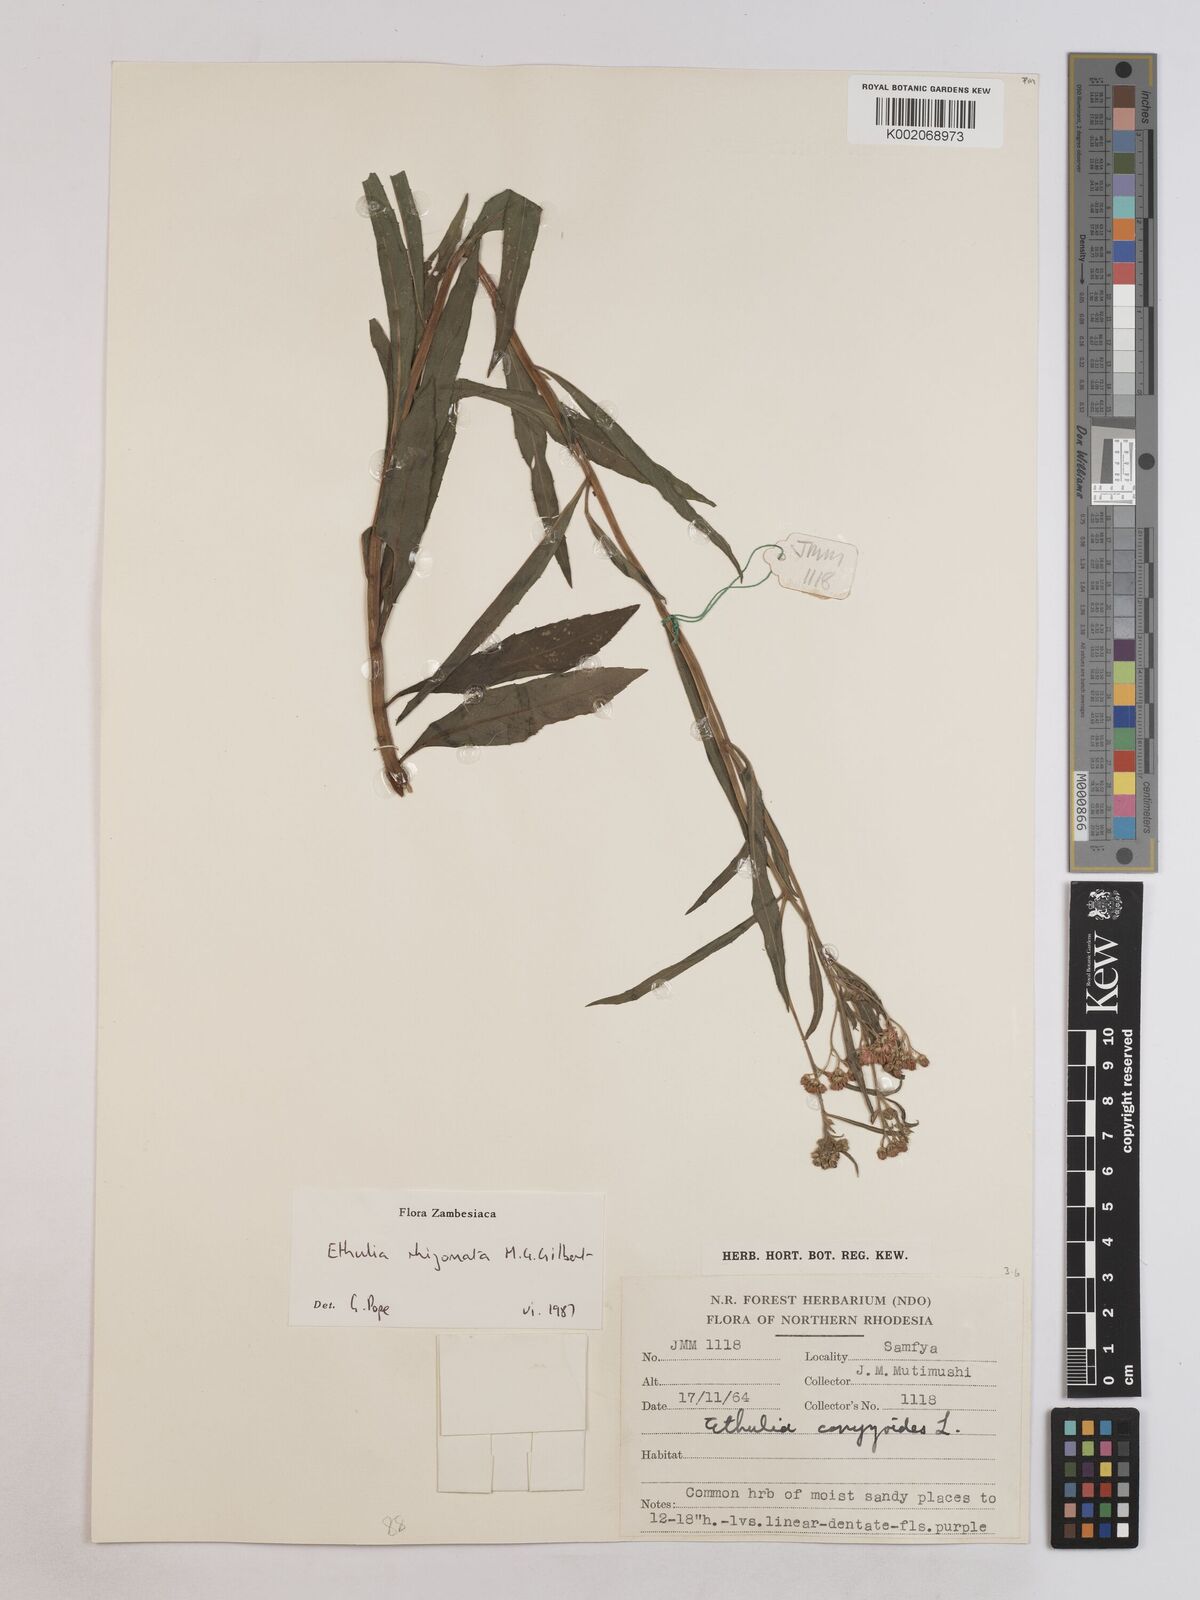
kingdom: Plantae
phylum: Tracheophyta
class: Magnoliopsida
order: Asterales
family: Asteraceae
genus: Ethulia
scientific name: Ethulia rhizomata
